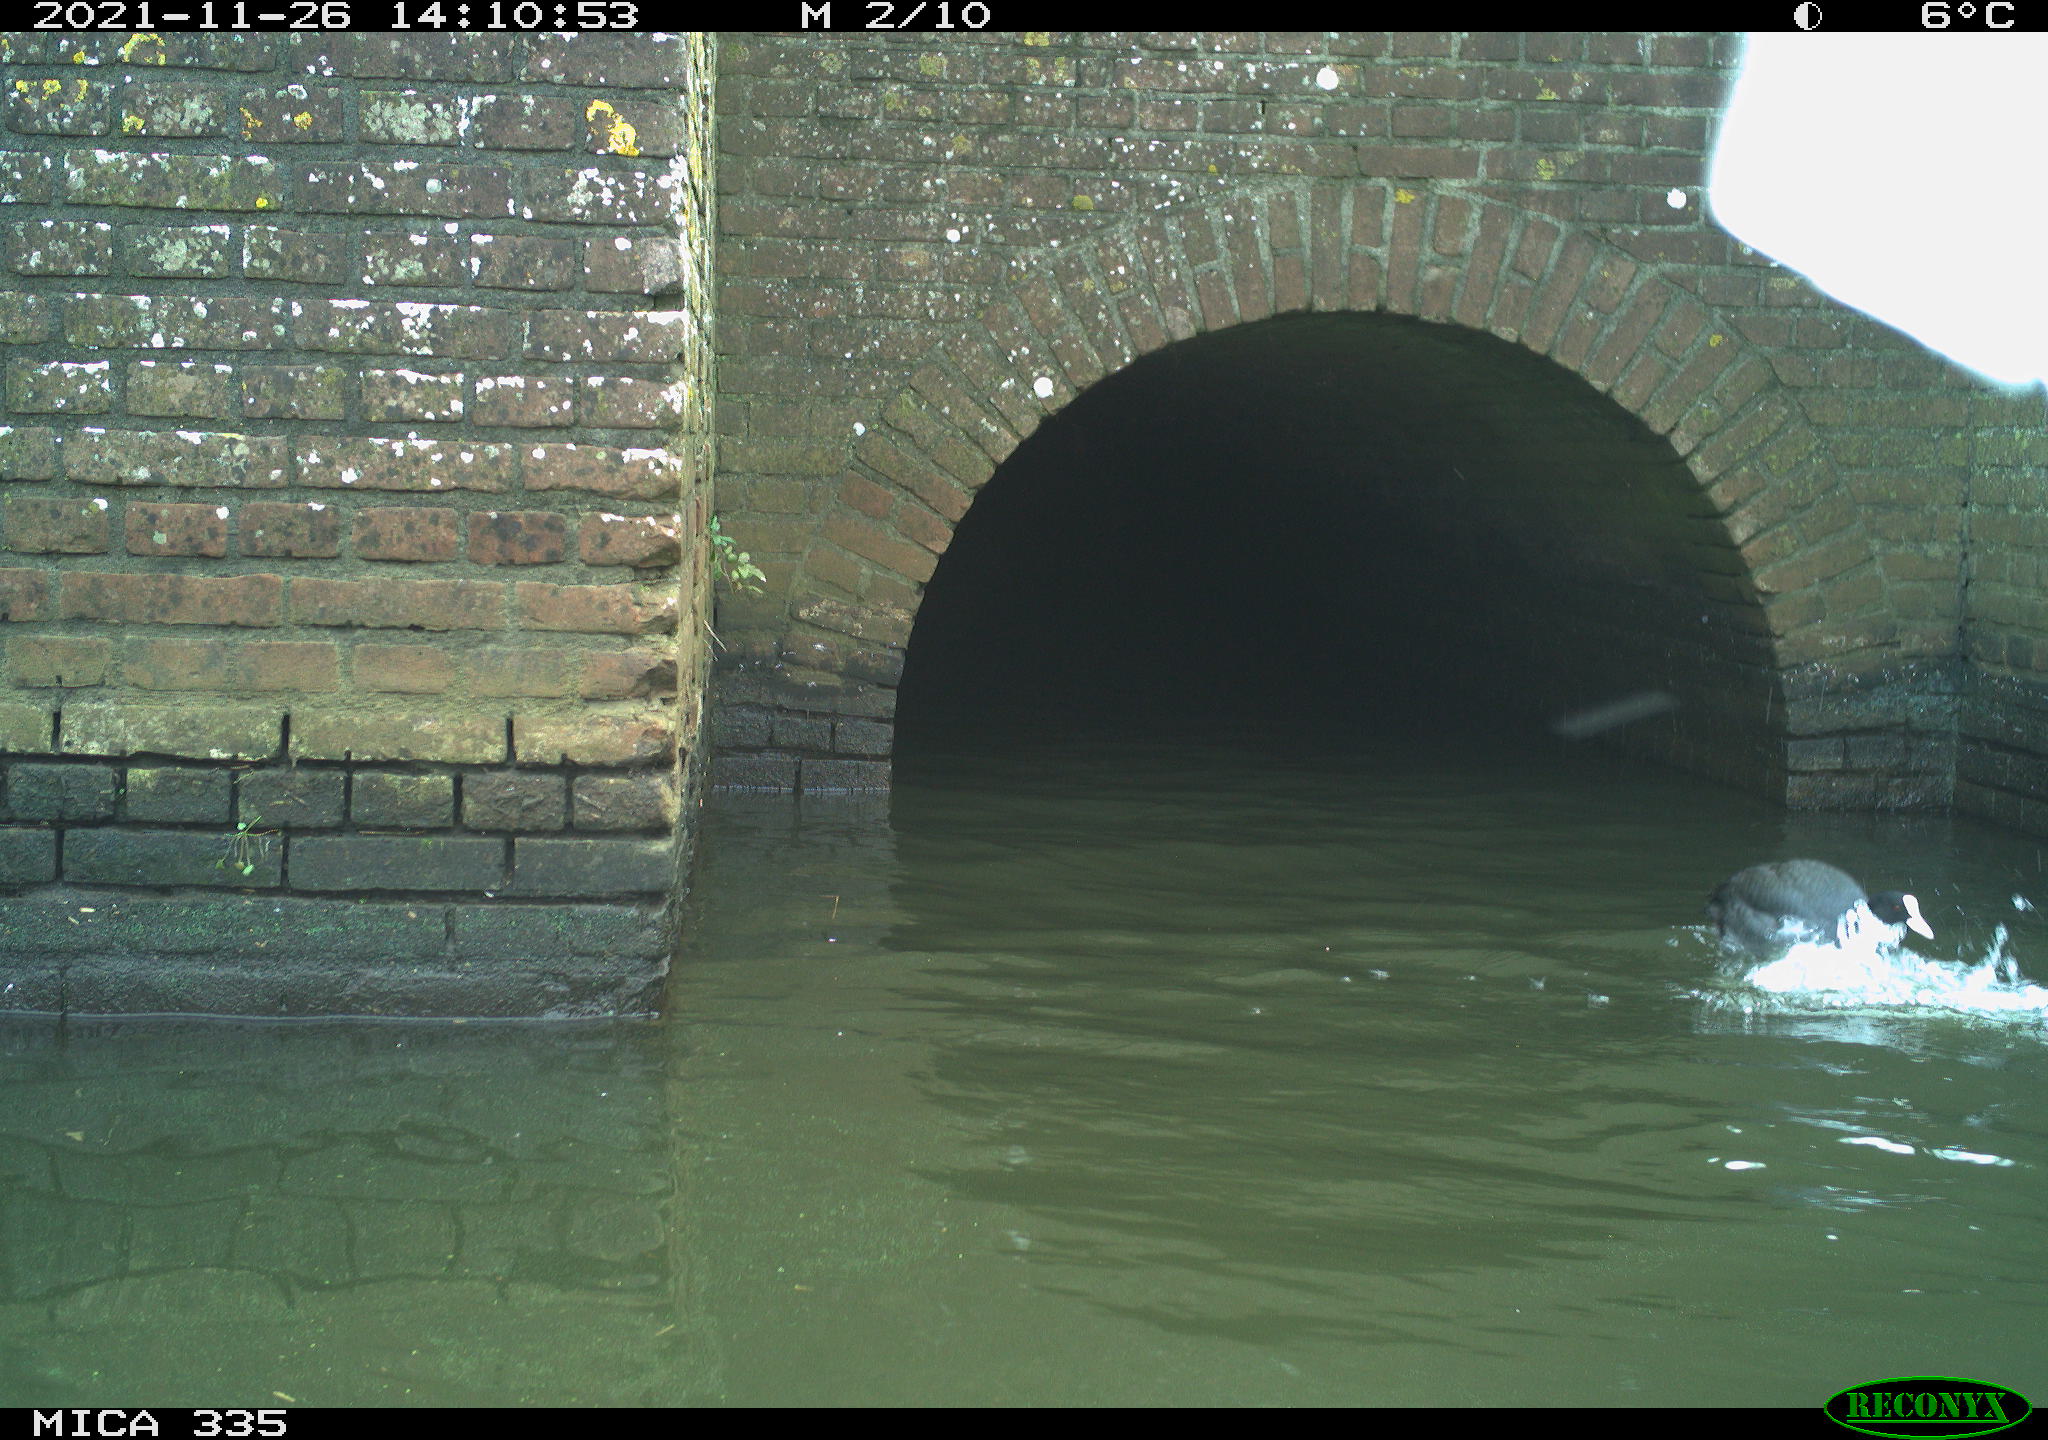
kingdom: Animalia
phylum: Chordata
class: Aves
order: Gruiformes
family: Rallidae
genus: Fulica
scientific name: Fulica atra
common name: Eurasian coot
